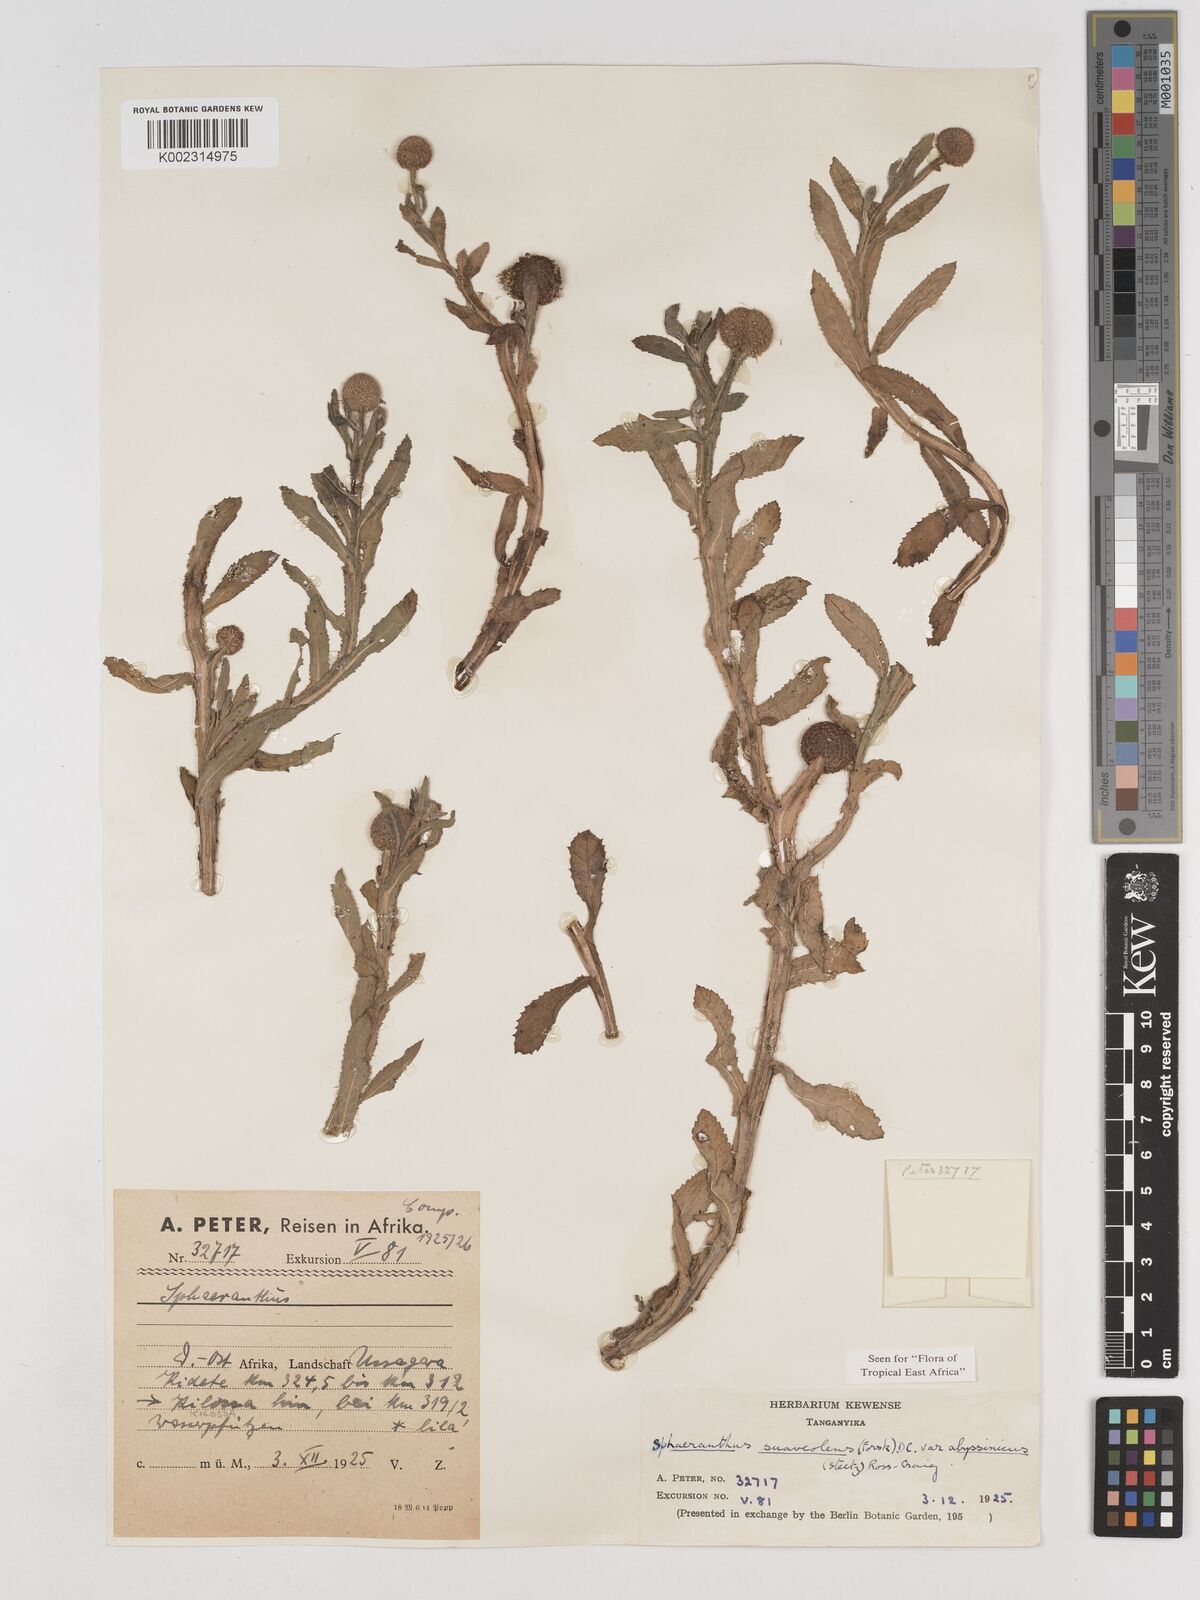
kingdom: Plantae
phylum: Tracheophyta
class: Magnoliopsida
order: Asterales
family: Asteraceae
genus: Sphaeranthus
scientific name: Sphaeranthus suaveolens
